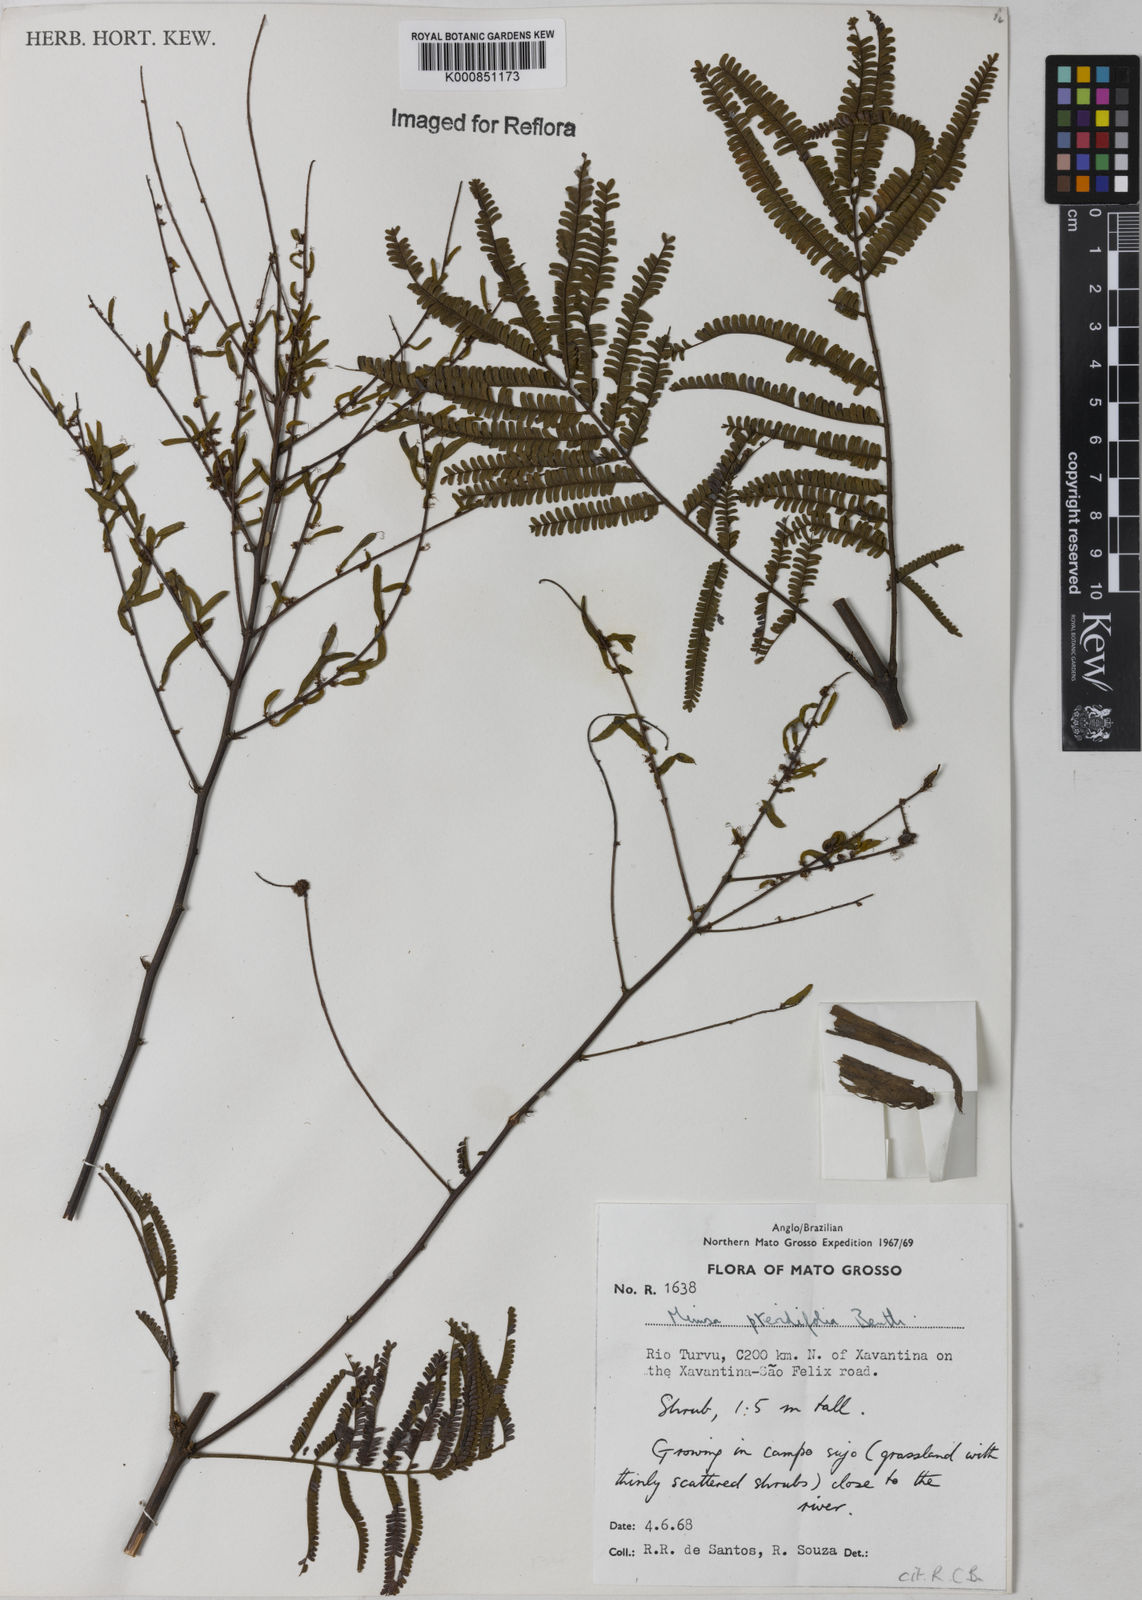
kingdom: Plantae
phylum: Tracheophyta
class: Magnoliopsida
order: Fabales
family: Fabaceae
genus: Mimosa
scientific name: Mimosa pteridifolia
